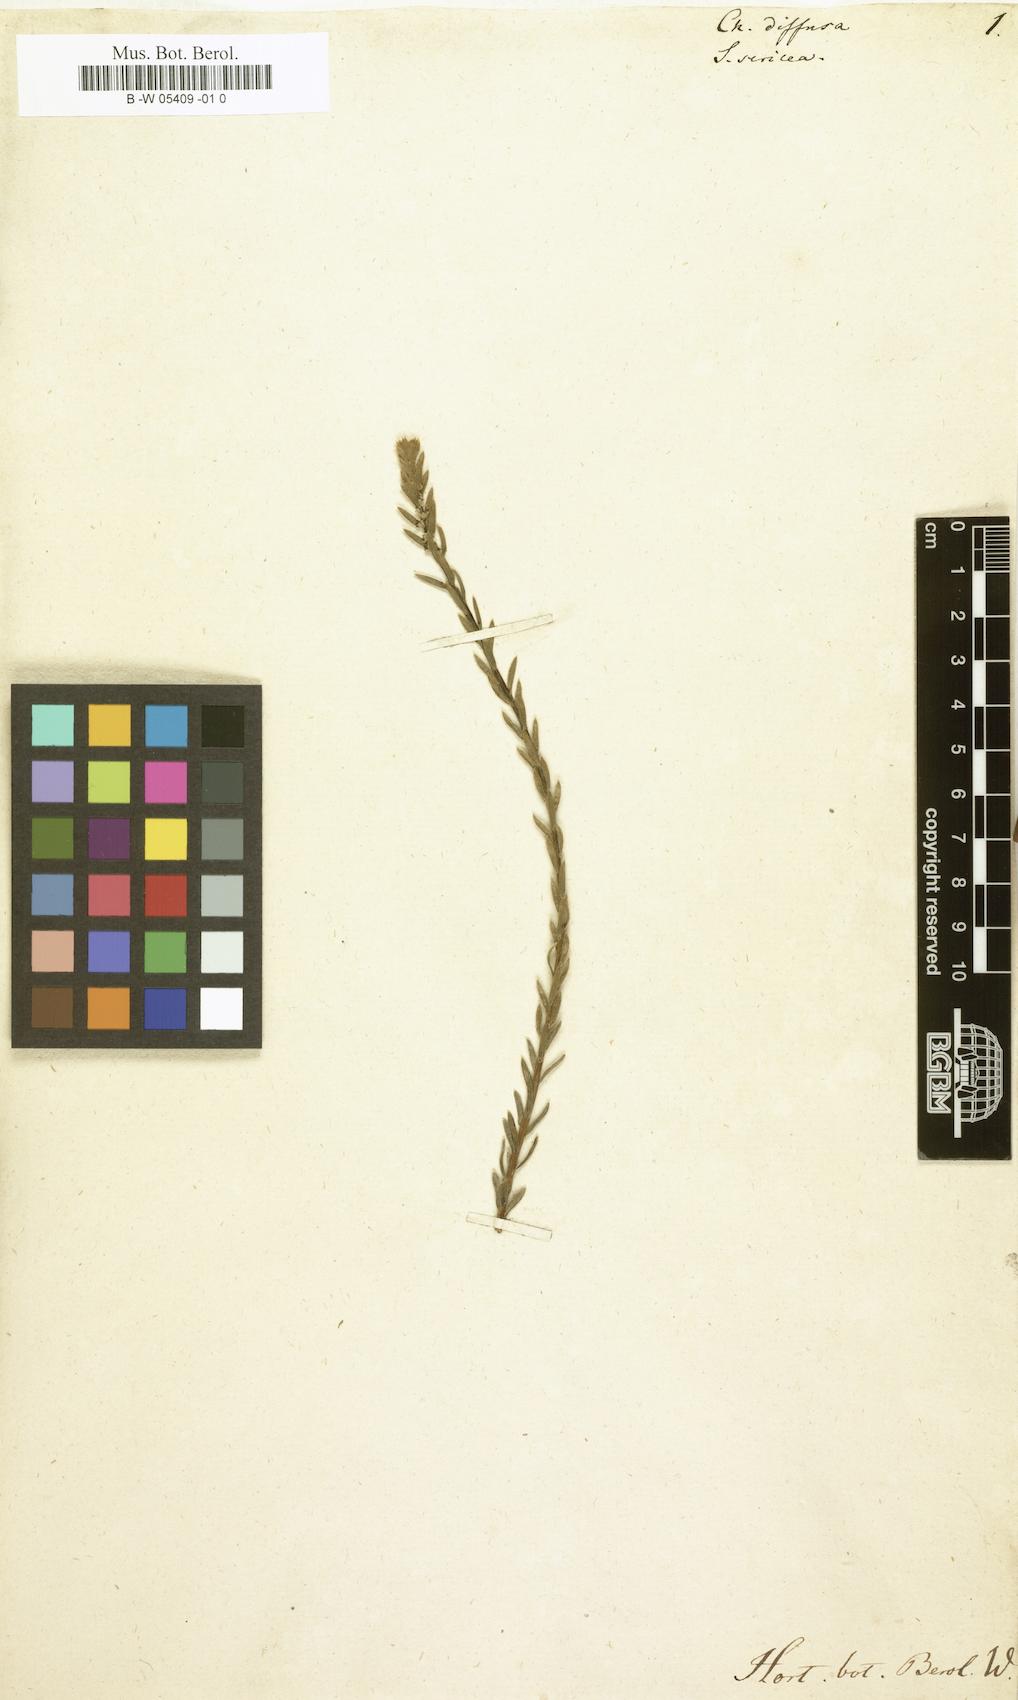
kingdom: Plantae
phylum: Tracheophyta
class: Magnoliopsida
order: Caryophyllales
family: Amaranthaceae
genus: Chenolea
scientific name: Chenolea diffusa
